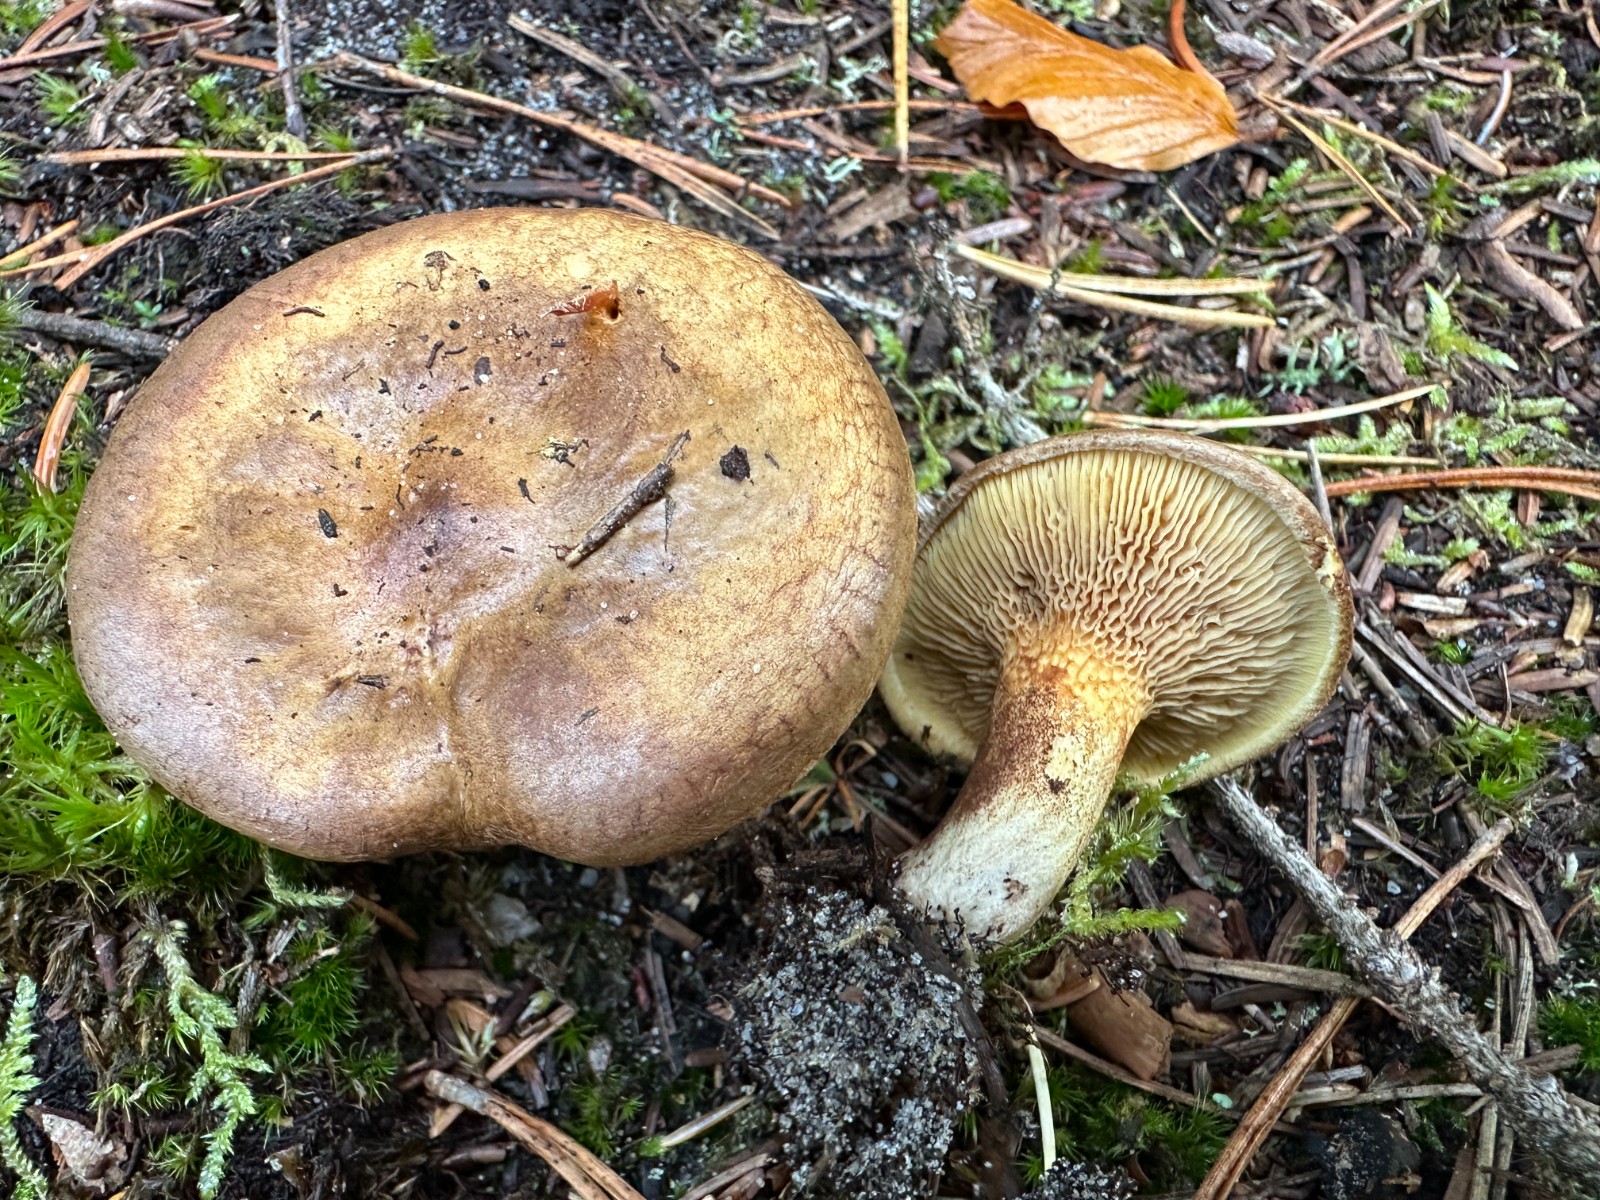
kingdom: Fungi
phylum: Basidiomycota
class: Agaricomycetes
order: Boletales
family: Paxillaceae
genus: Paxillus
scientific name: Paxillus involutus
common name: almindelig netbladhat
